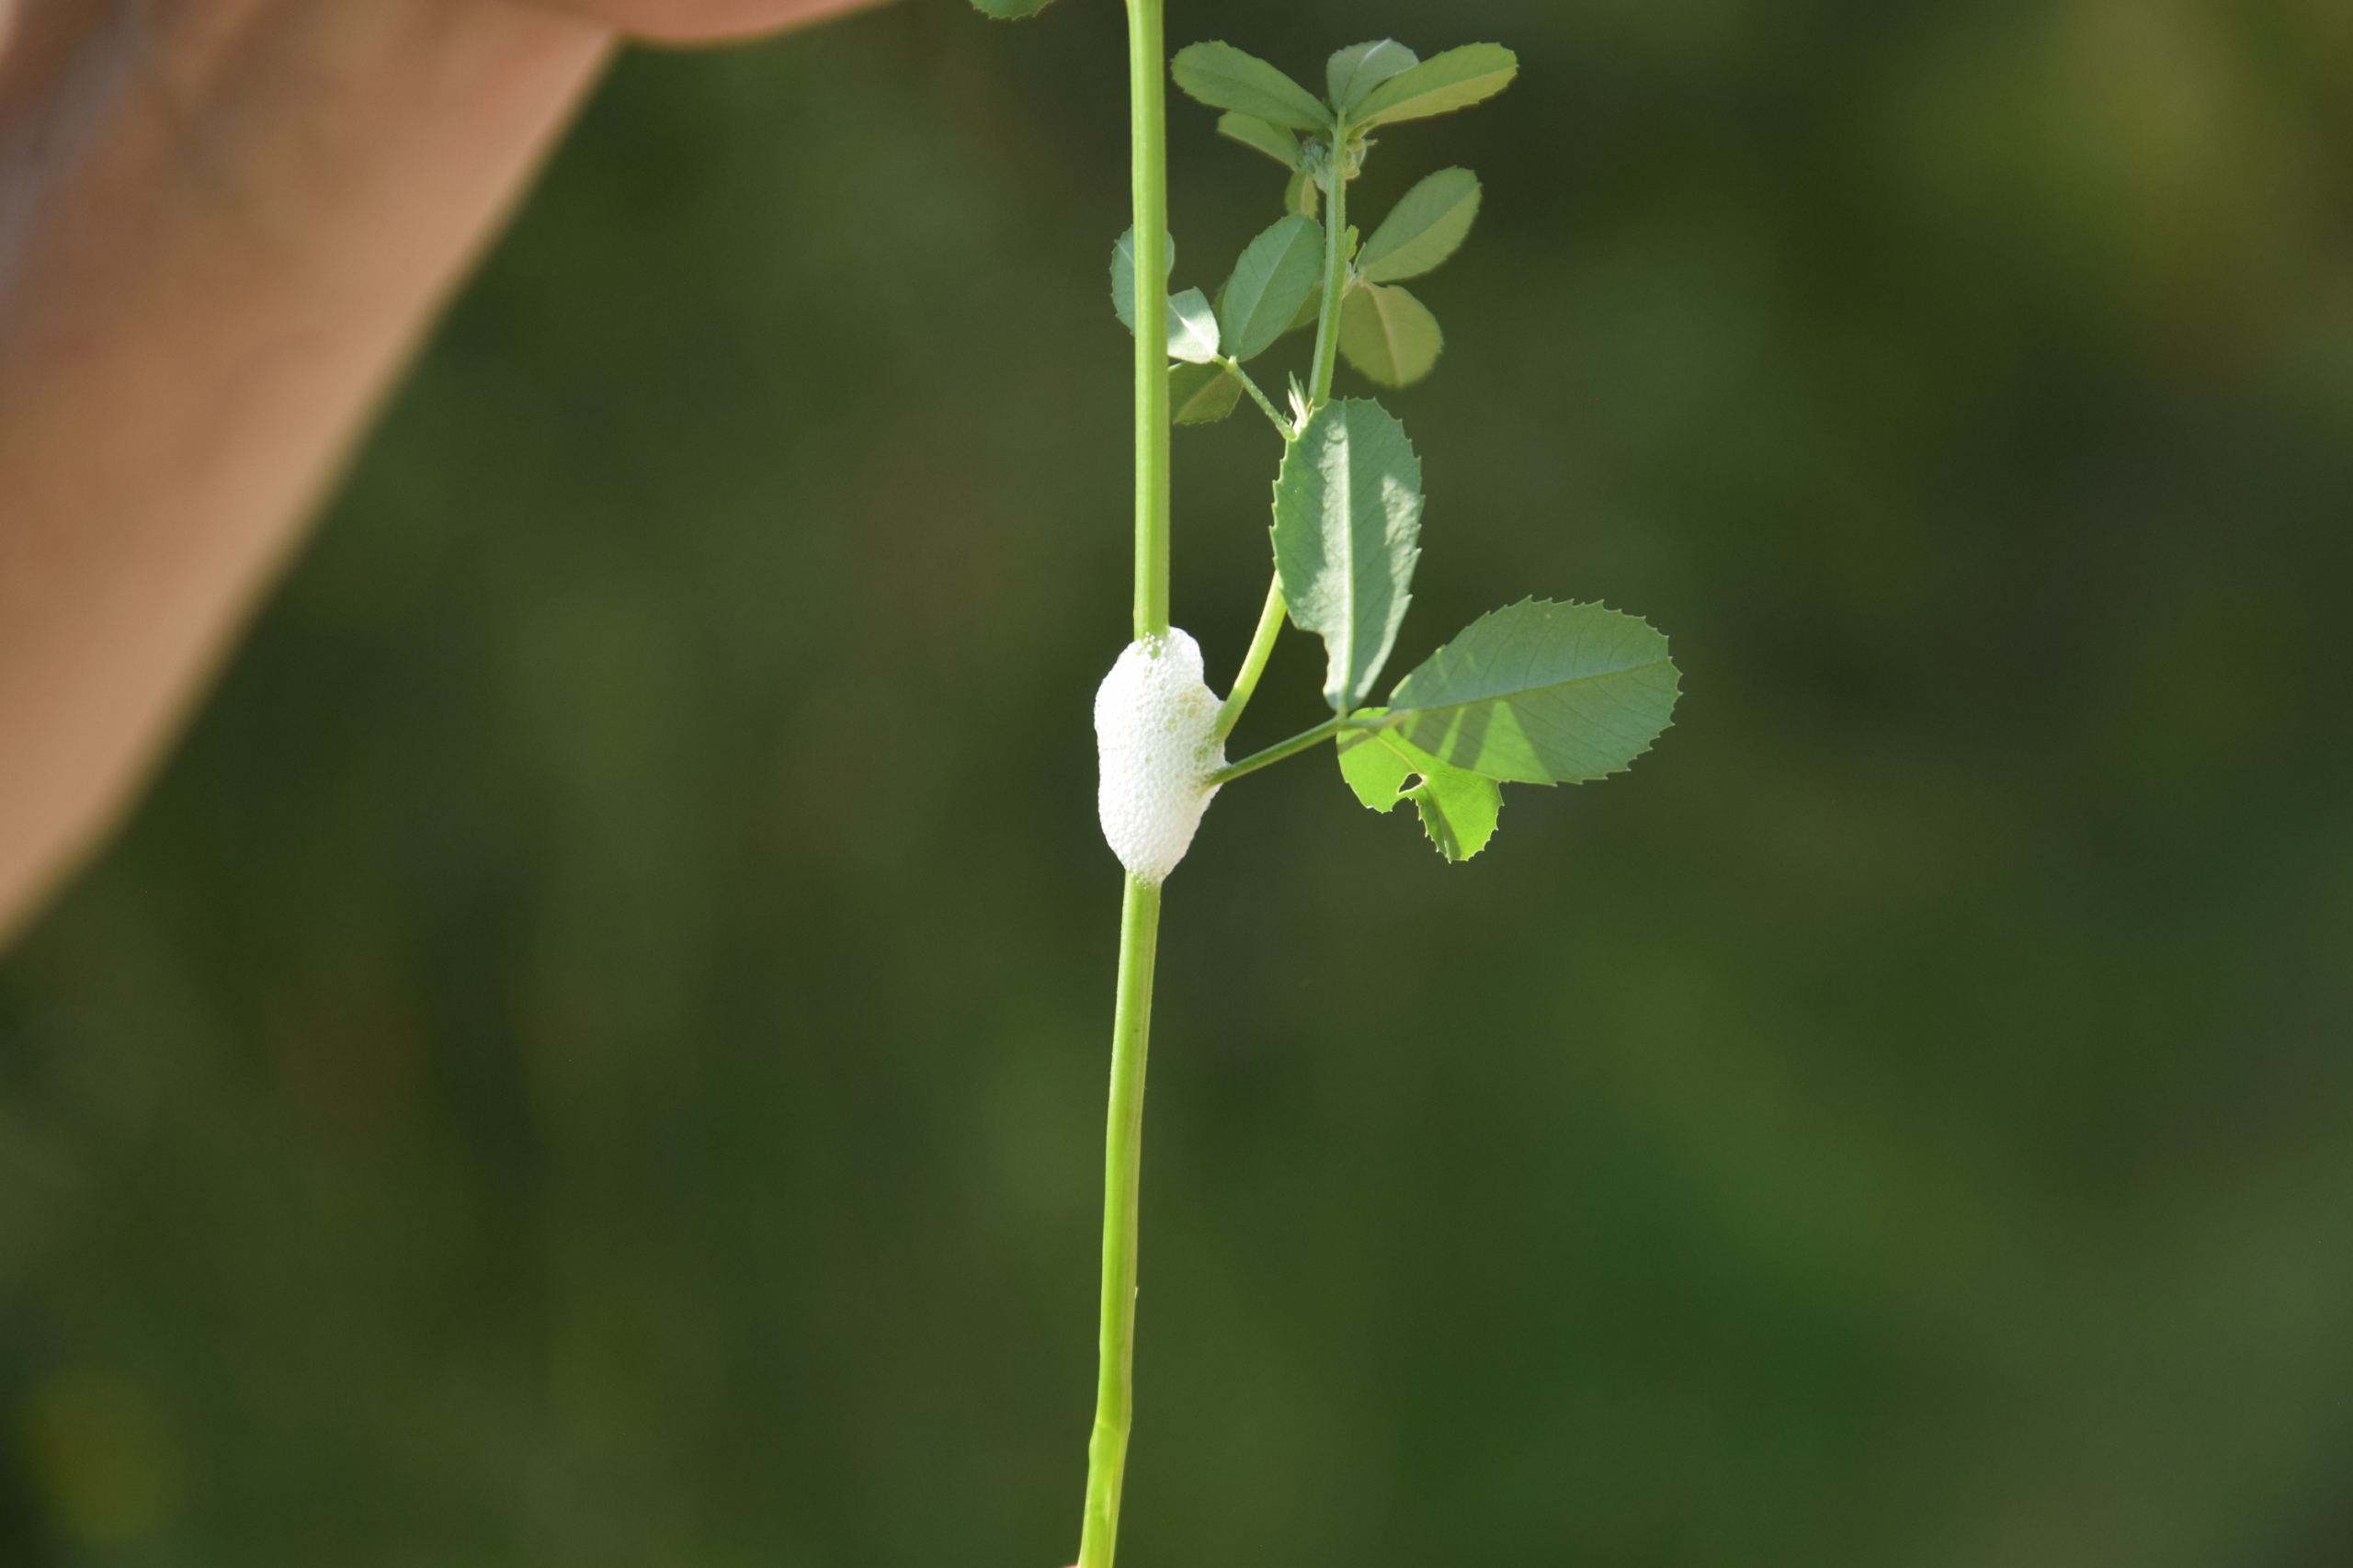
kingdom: Animalia
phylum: Arthropoda
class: Insecta
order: Hemiptera
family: Aphrophoridae
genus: Aphrophora
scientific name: Aphrophora alni
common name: Stor skumcikade
